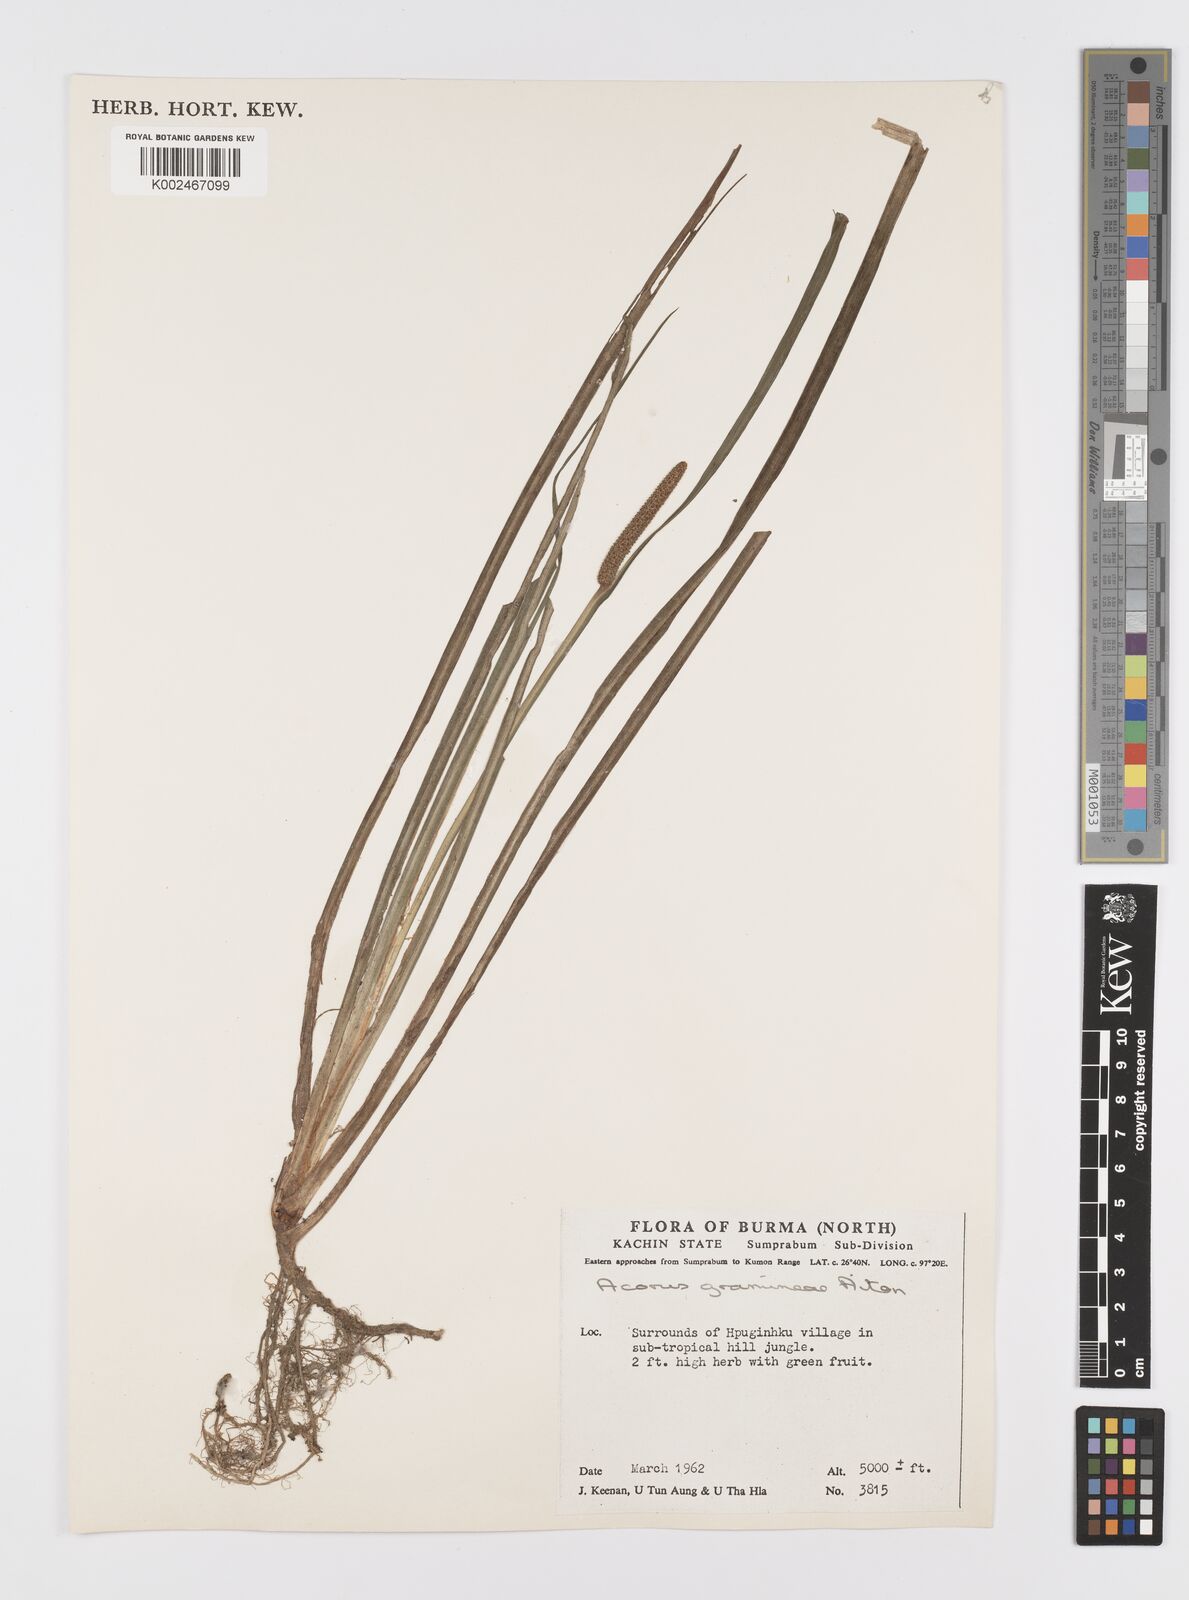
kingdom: Plantae
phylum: Tracheophyta
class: Liliopsida
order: Acorales
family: Acoraceae
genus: Acorus
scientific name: Acorus gramineus
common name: Slender sweet-flag
